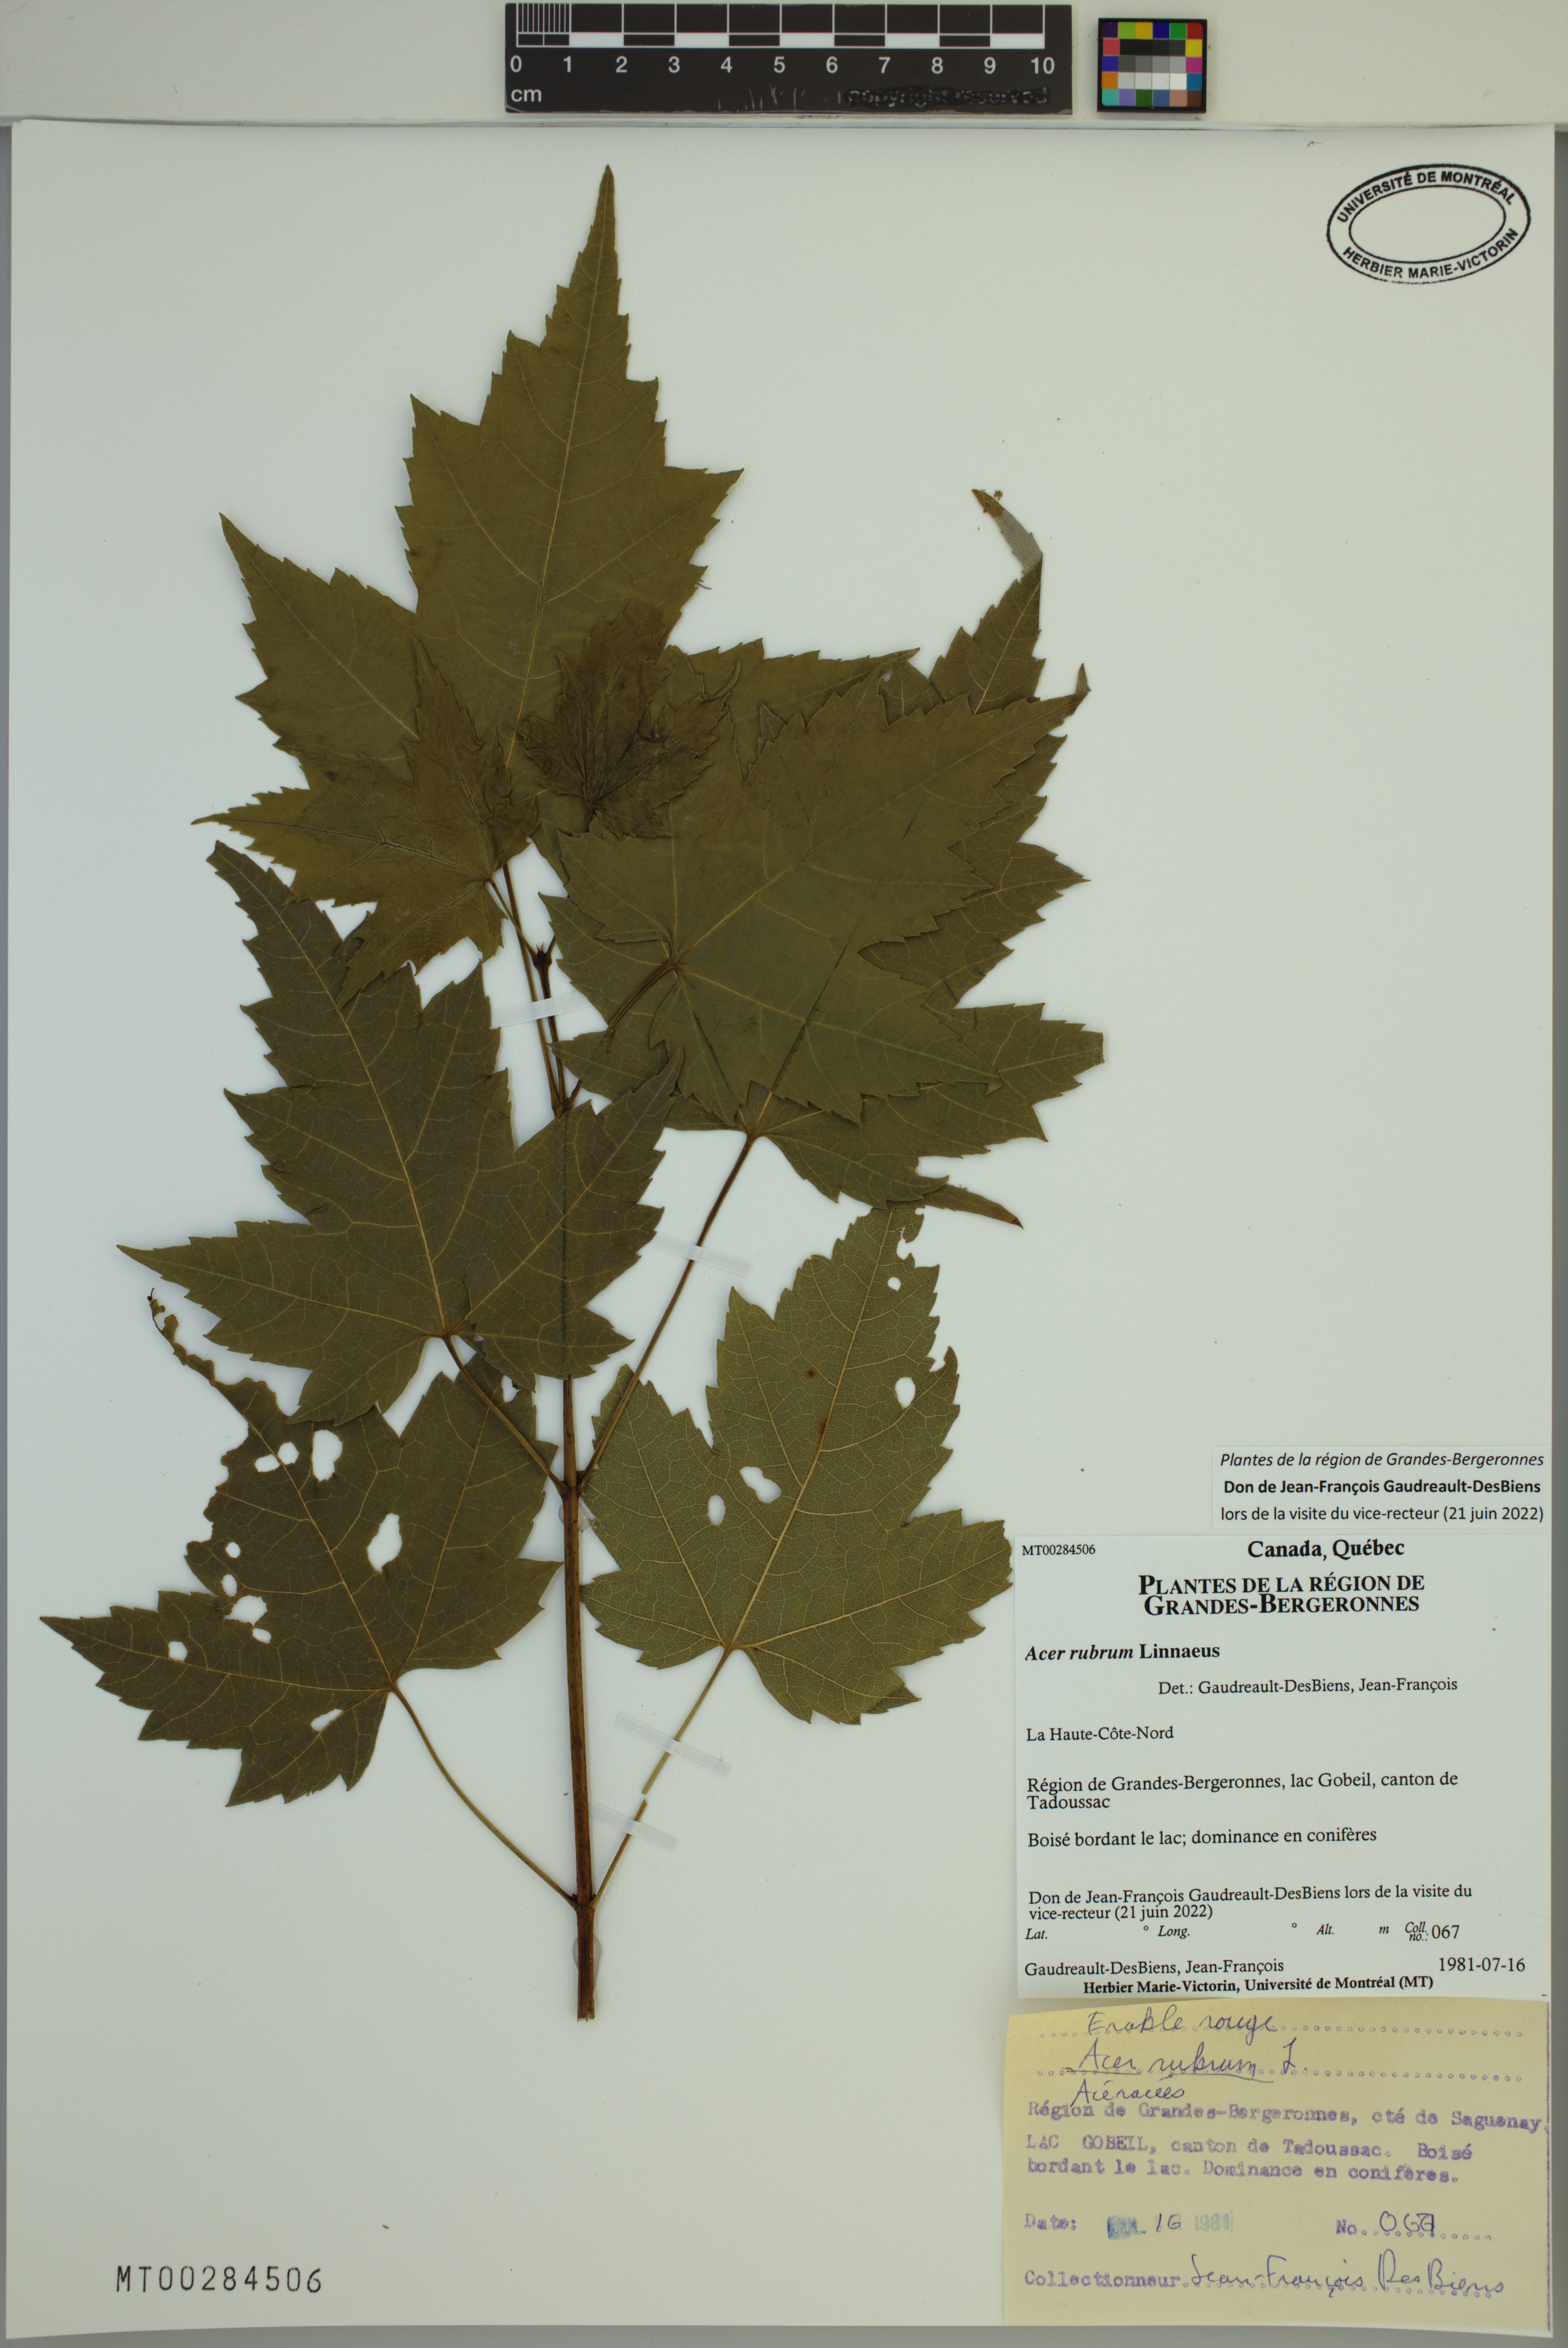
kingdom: Plantae
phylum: Tracheophyta
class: Magnoliopsida
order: Sapindales
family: Sapindaceae
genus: Acer
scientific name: Acer rubrum
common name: Red maple
